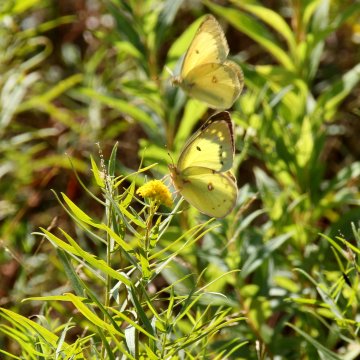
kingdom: Animalia
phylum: Arthropoda
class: Insecta
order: Lepidoptera
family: Pieridae
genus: Colias
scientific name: Colias philodice
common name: Clouded Sulphur
